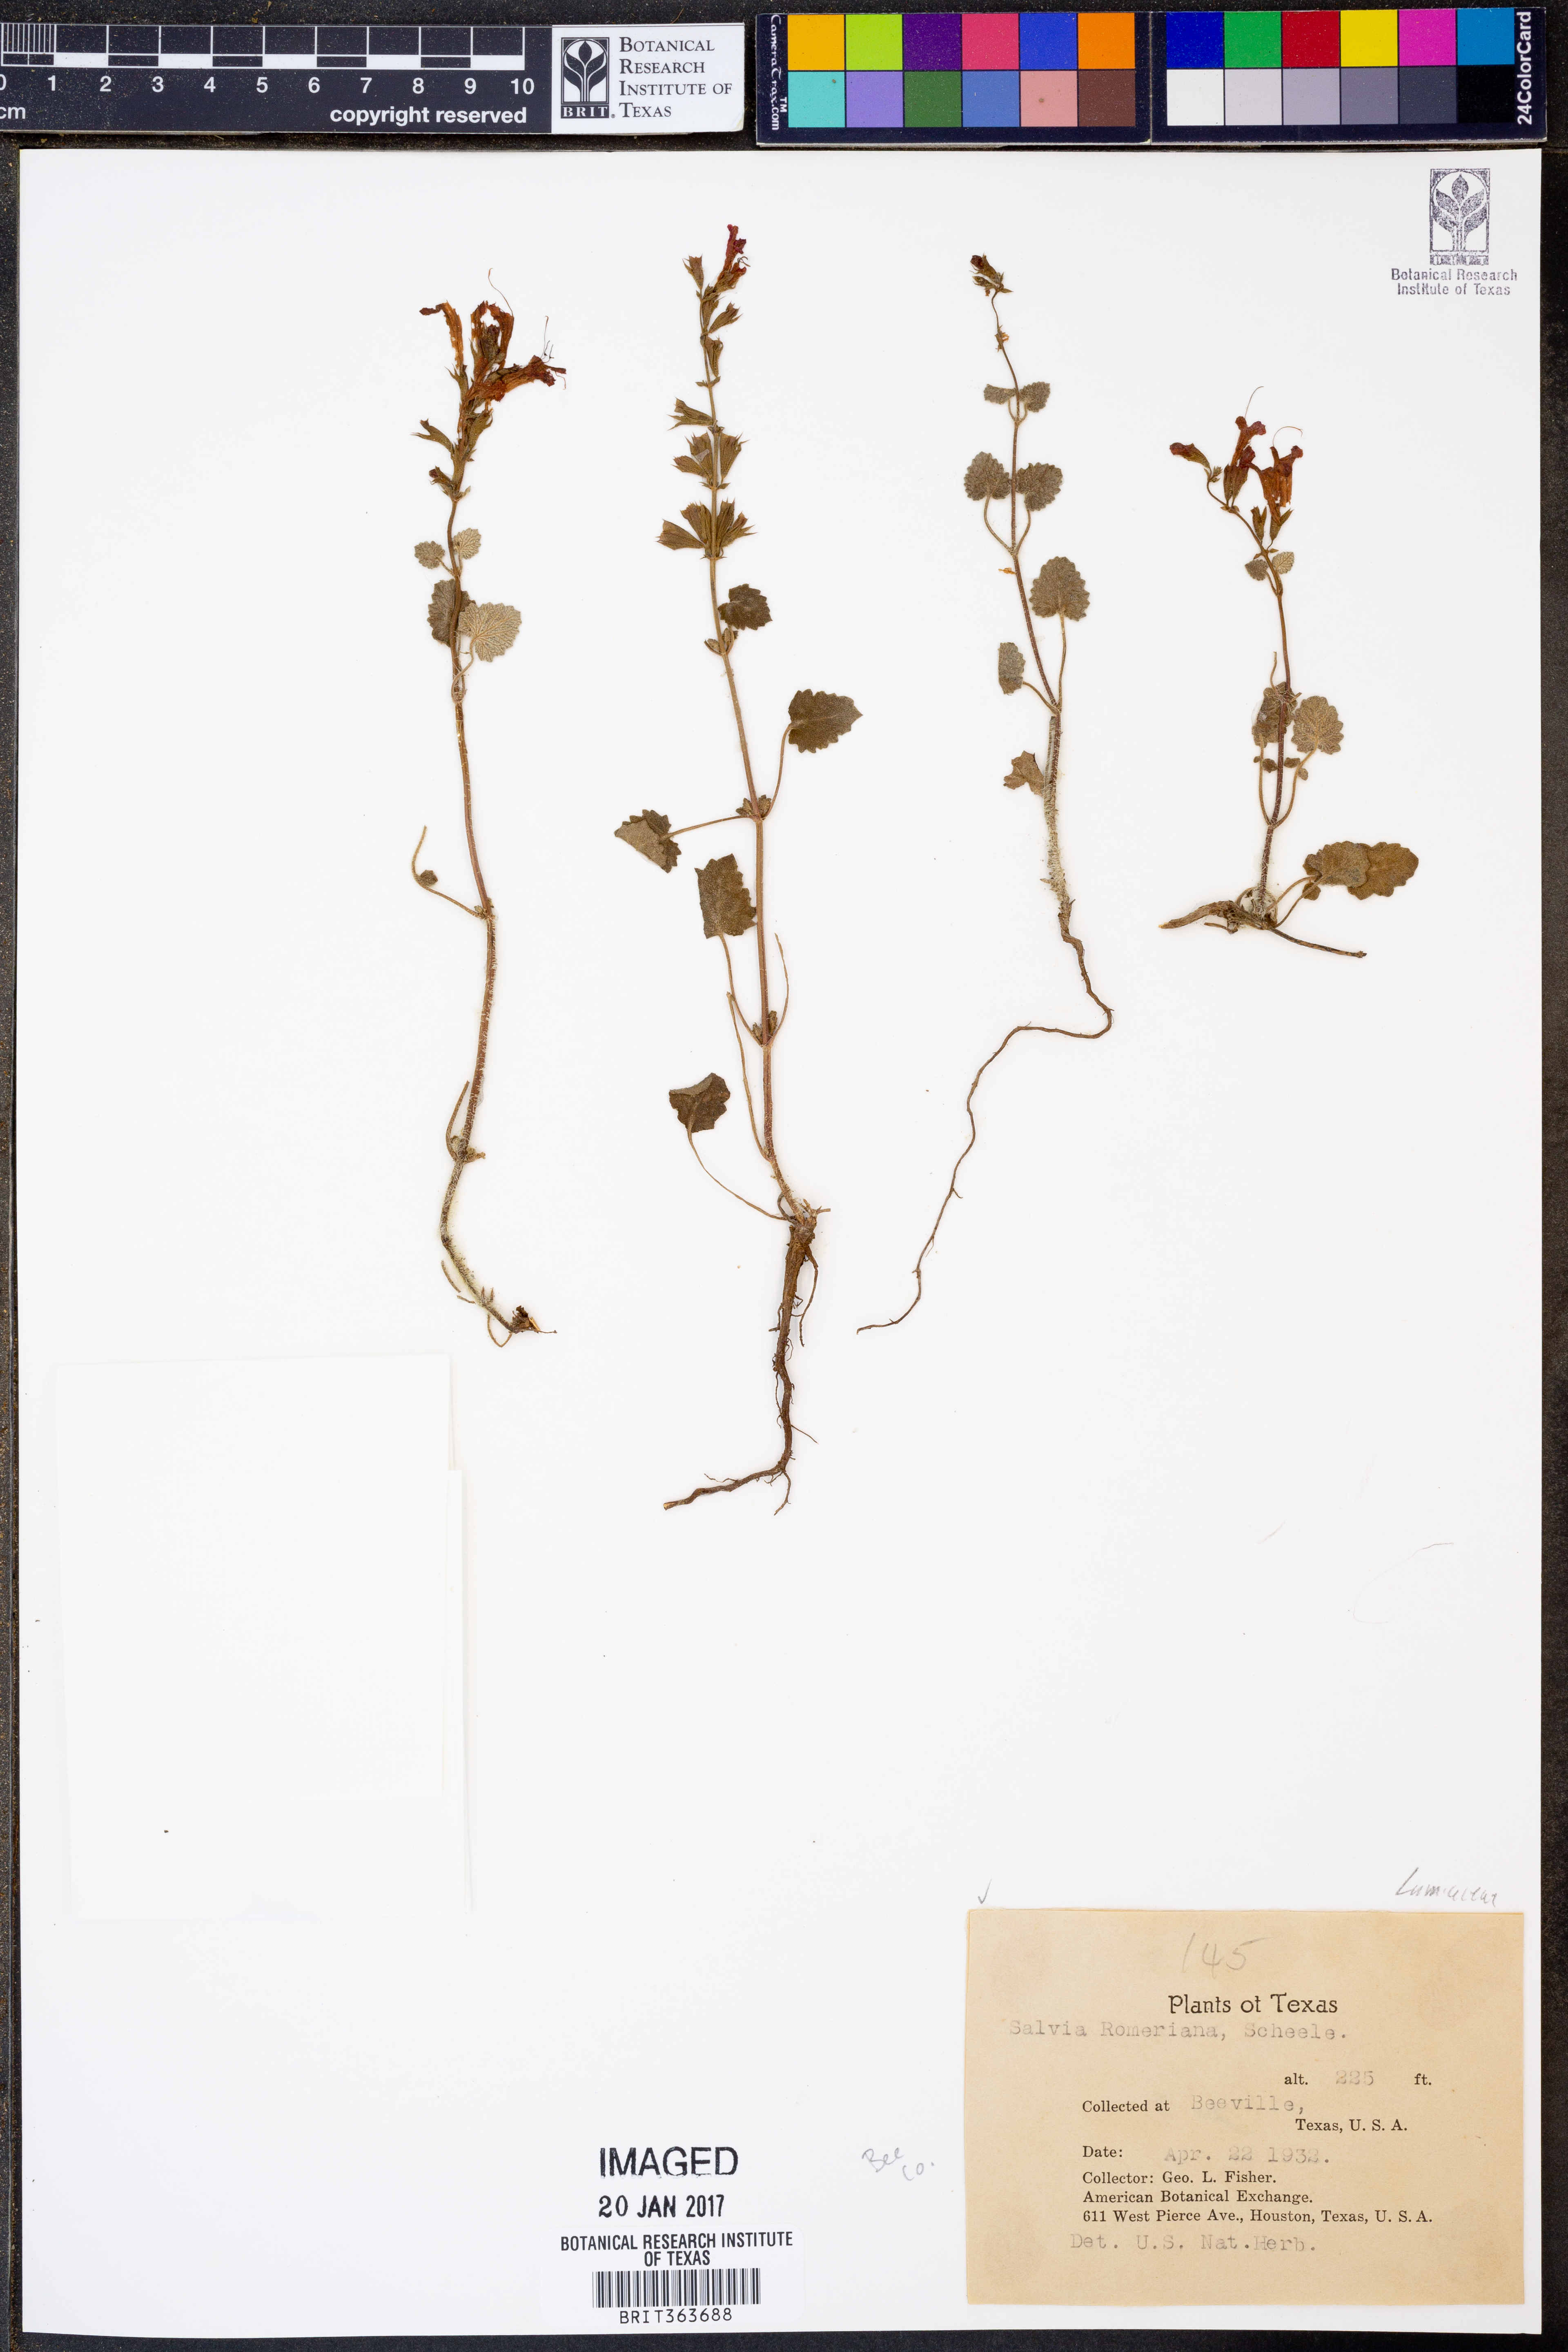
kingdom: Plantae
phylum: Tracheophyta
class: Magnoliopsida
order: Lamiales
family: Lamiaceae
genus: Salvia
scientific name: Salvia roemeriana
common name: Cedar sage
